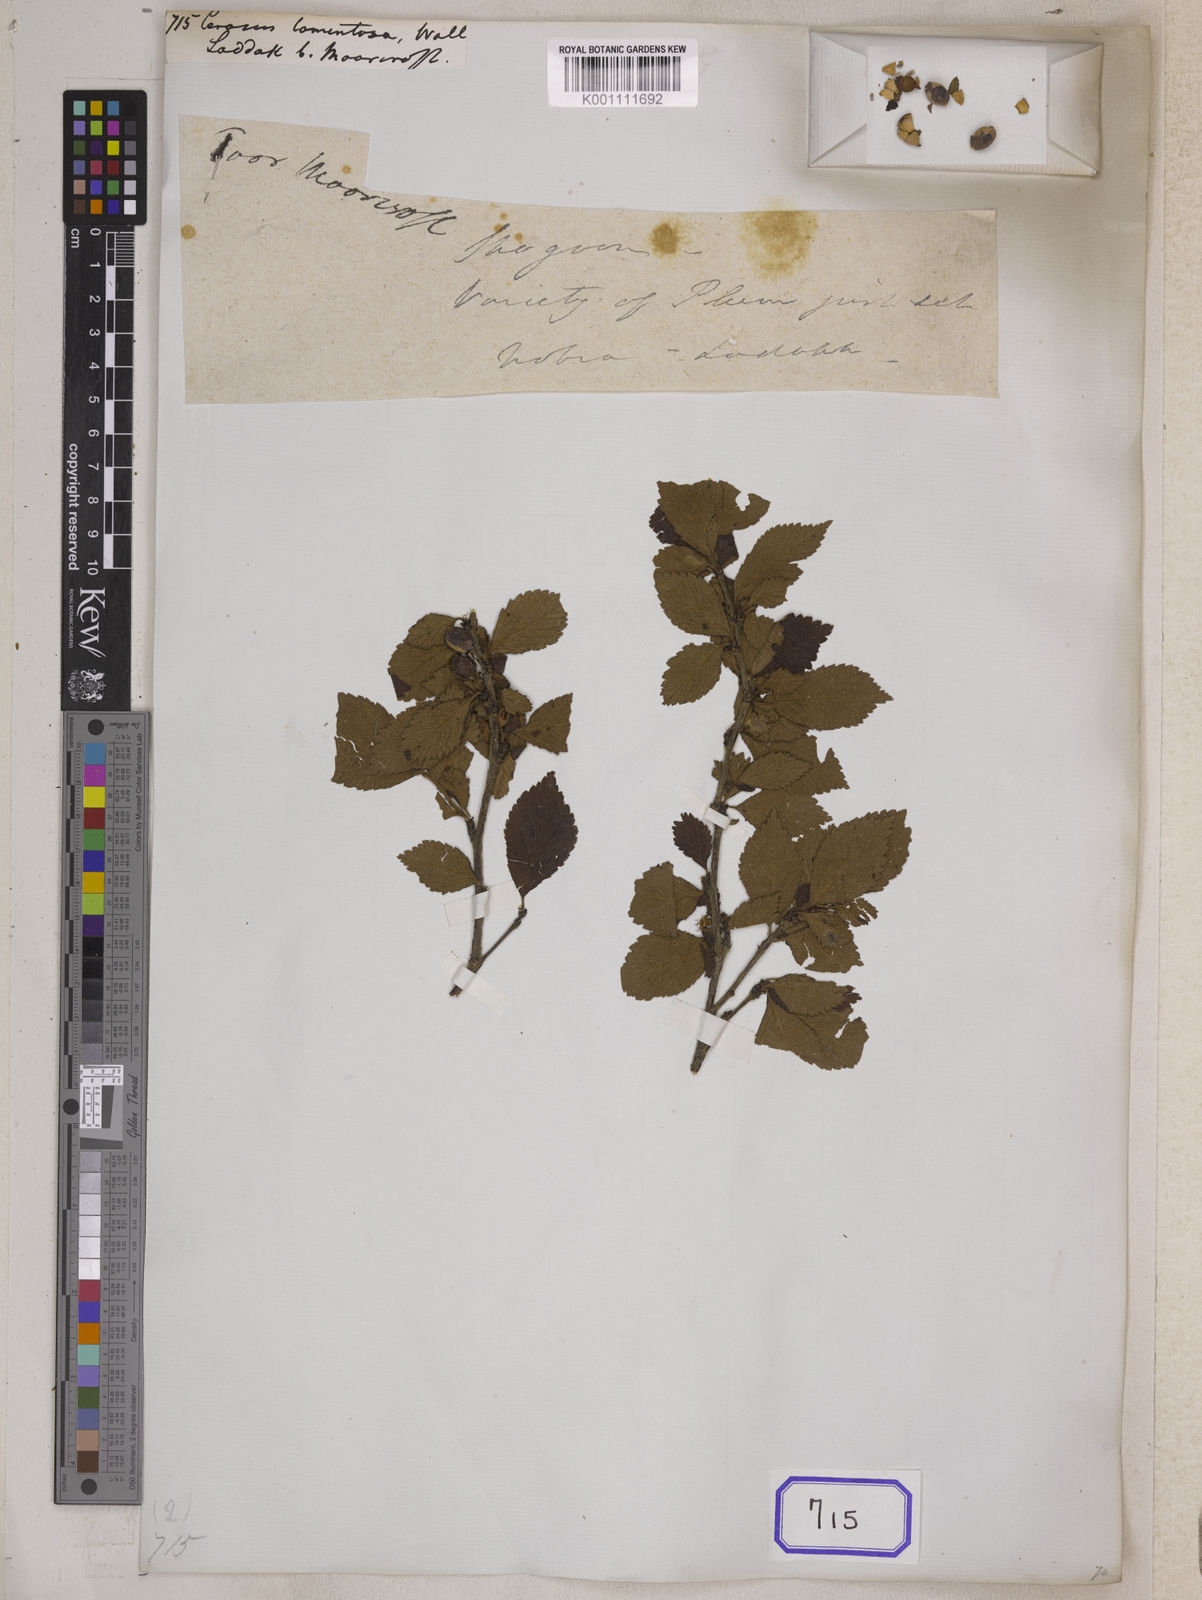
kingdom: Plantae
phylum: Tracheophyta
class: Magnoliopsida
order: Rosales
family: Rosaceae
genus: Prunus
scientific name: Prunus Cerasus myrtifolia
